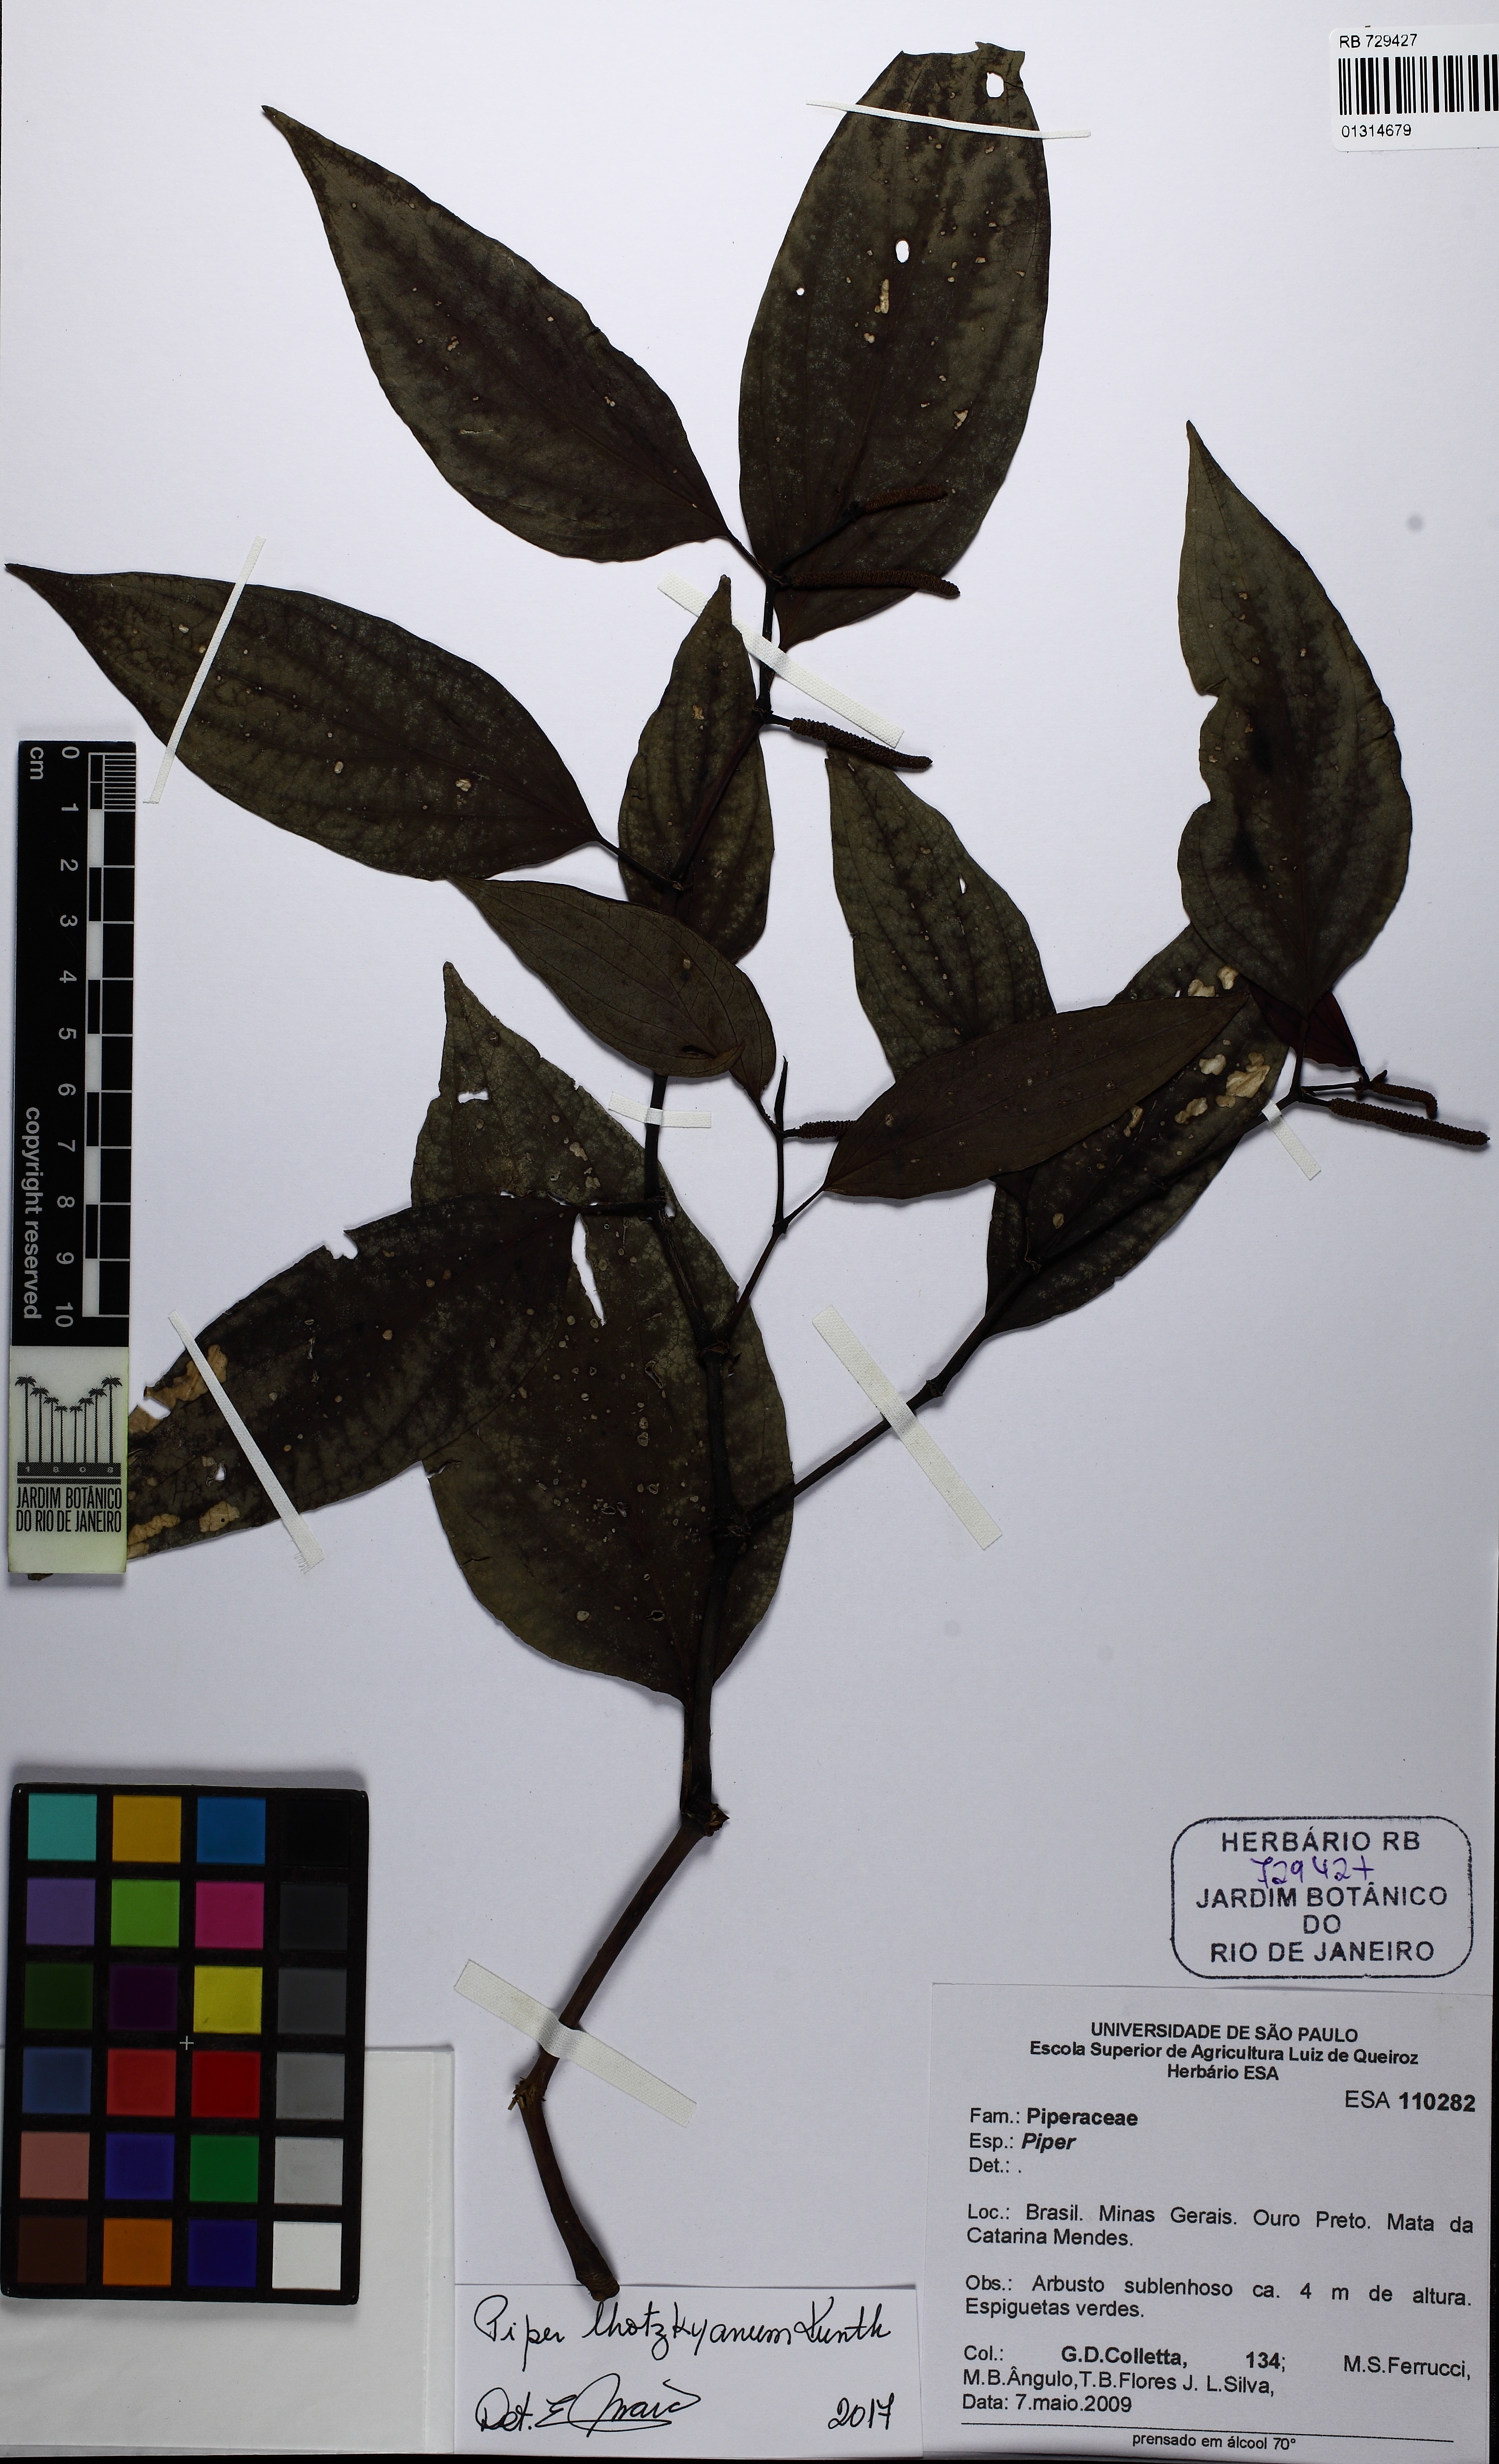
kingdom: Plantae
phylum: Tracheophyta
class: Magnoliopsida
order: Piperales
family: Piperaceae
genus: Piper
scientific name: Piper lhotzkyanum
